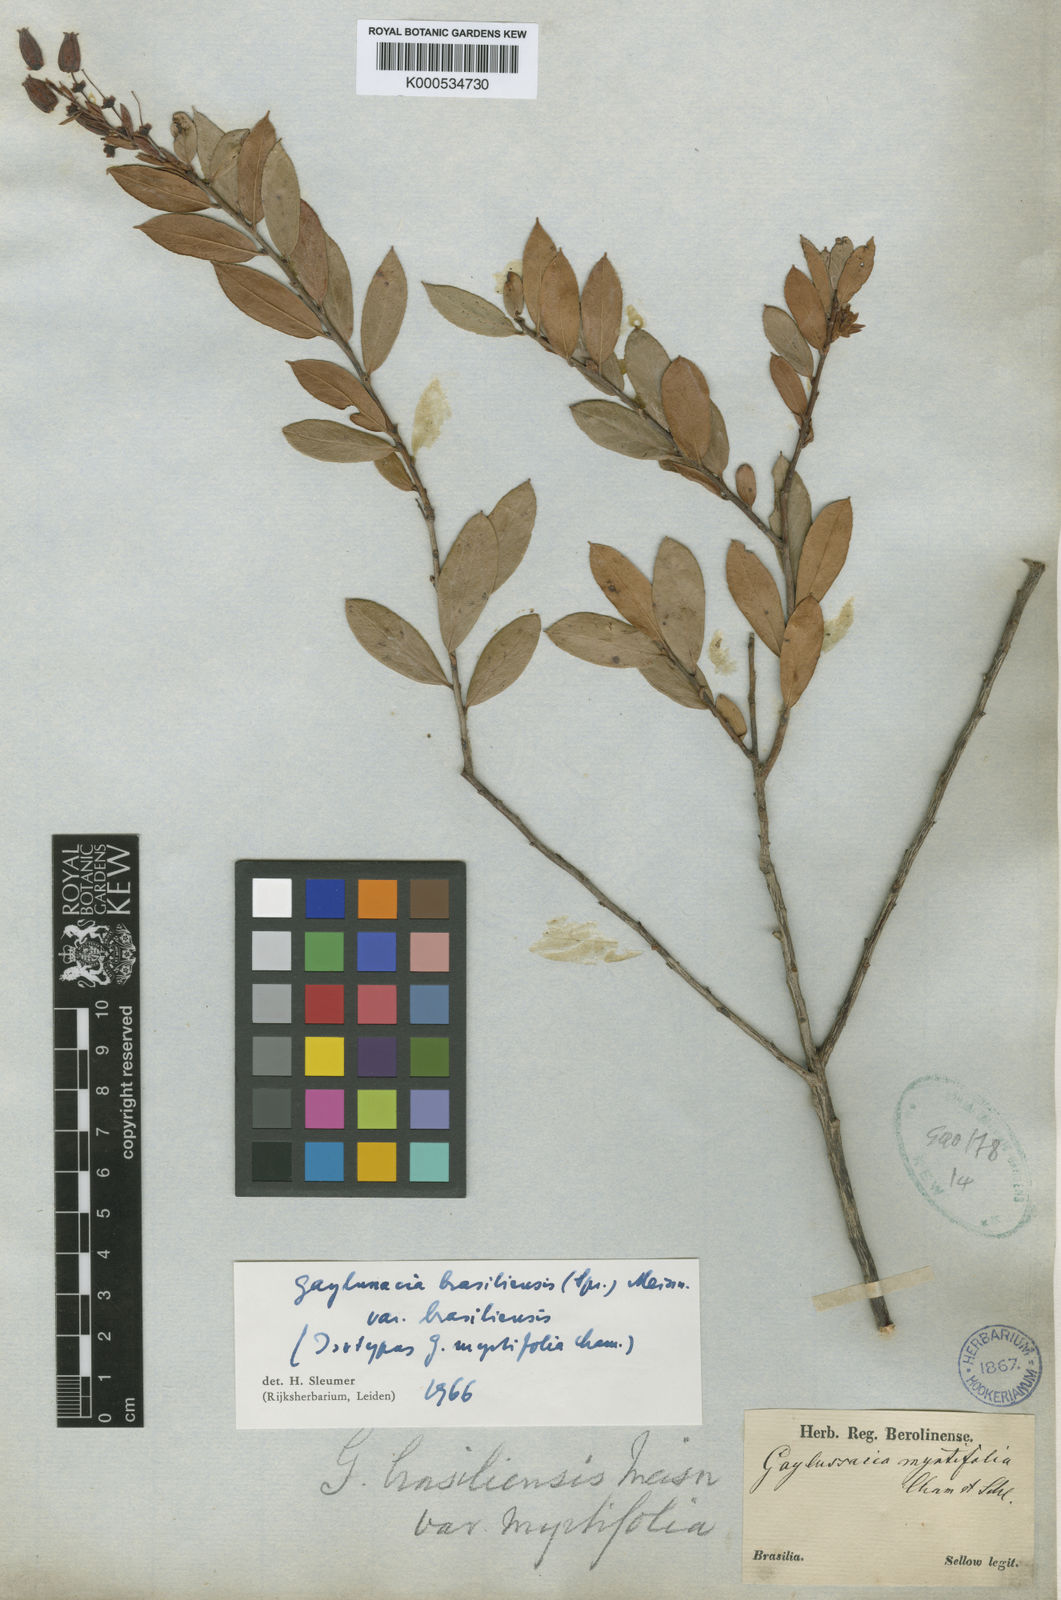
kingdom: Plantae
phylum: Tracheophyta
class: Magnoliopsida
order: Ericales
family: Ericaceae
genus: Gaylussacia
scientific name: Gaylussacia brasiliensis
